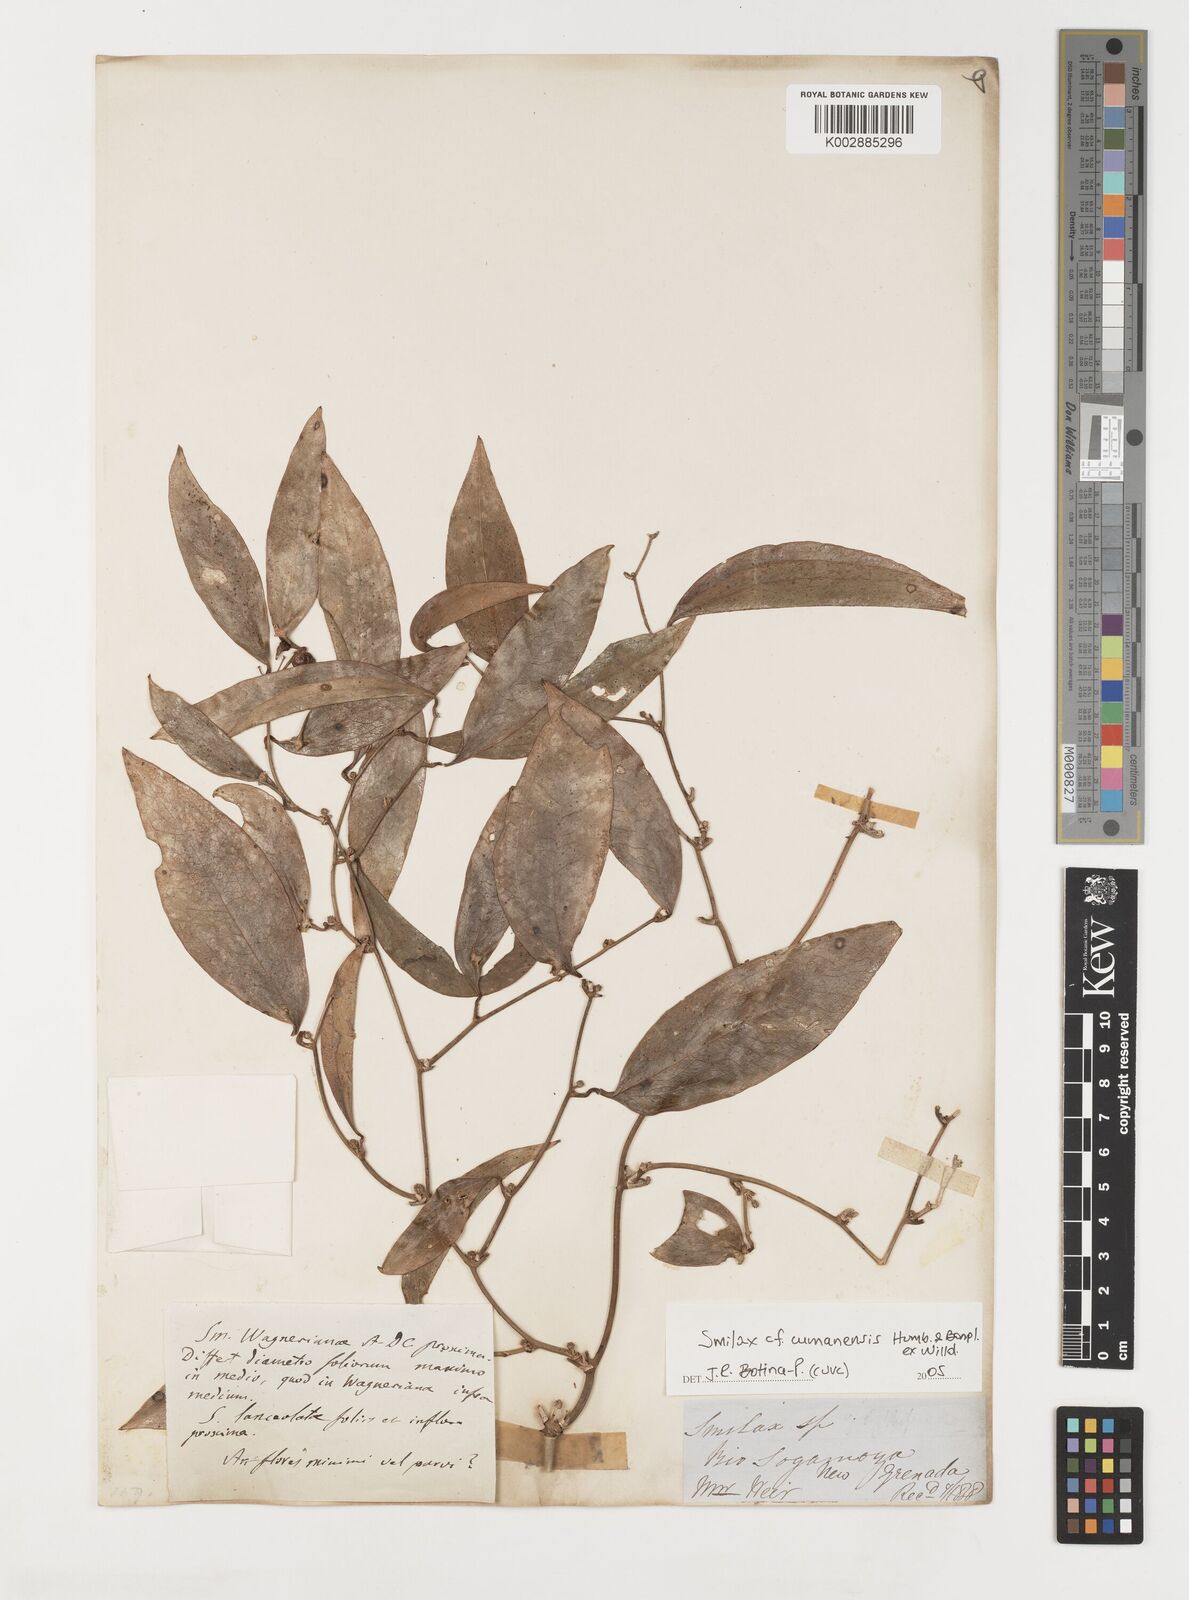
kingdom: Plantae
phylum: Tracheophyta
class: Liliopsida
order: Liliales
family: Smilacaceae
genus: Smilax
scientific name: Smilax oblongata
